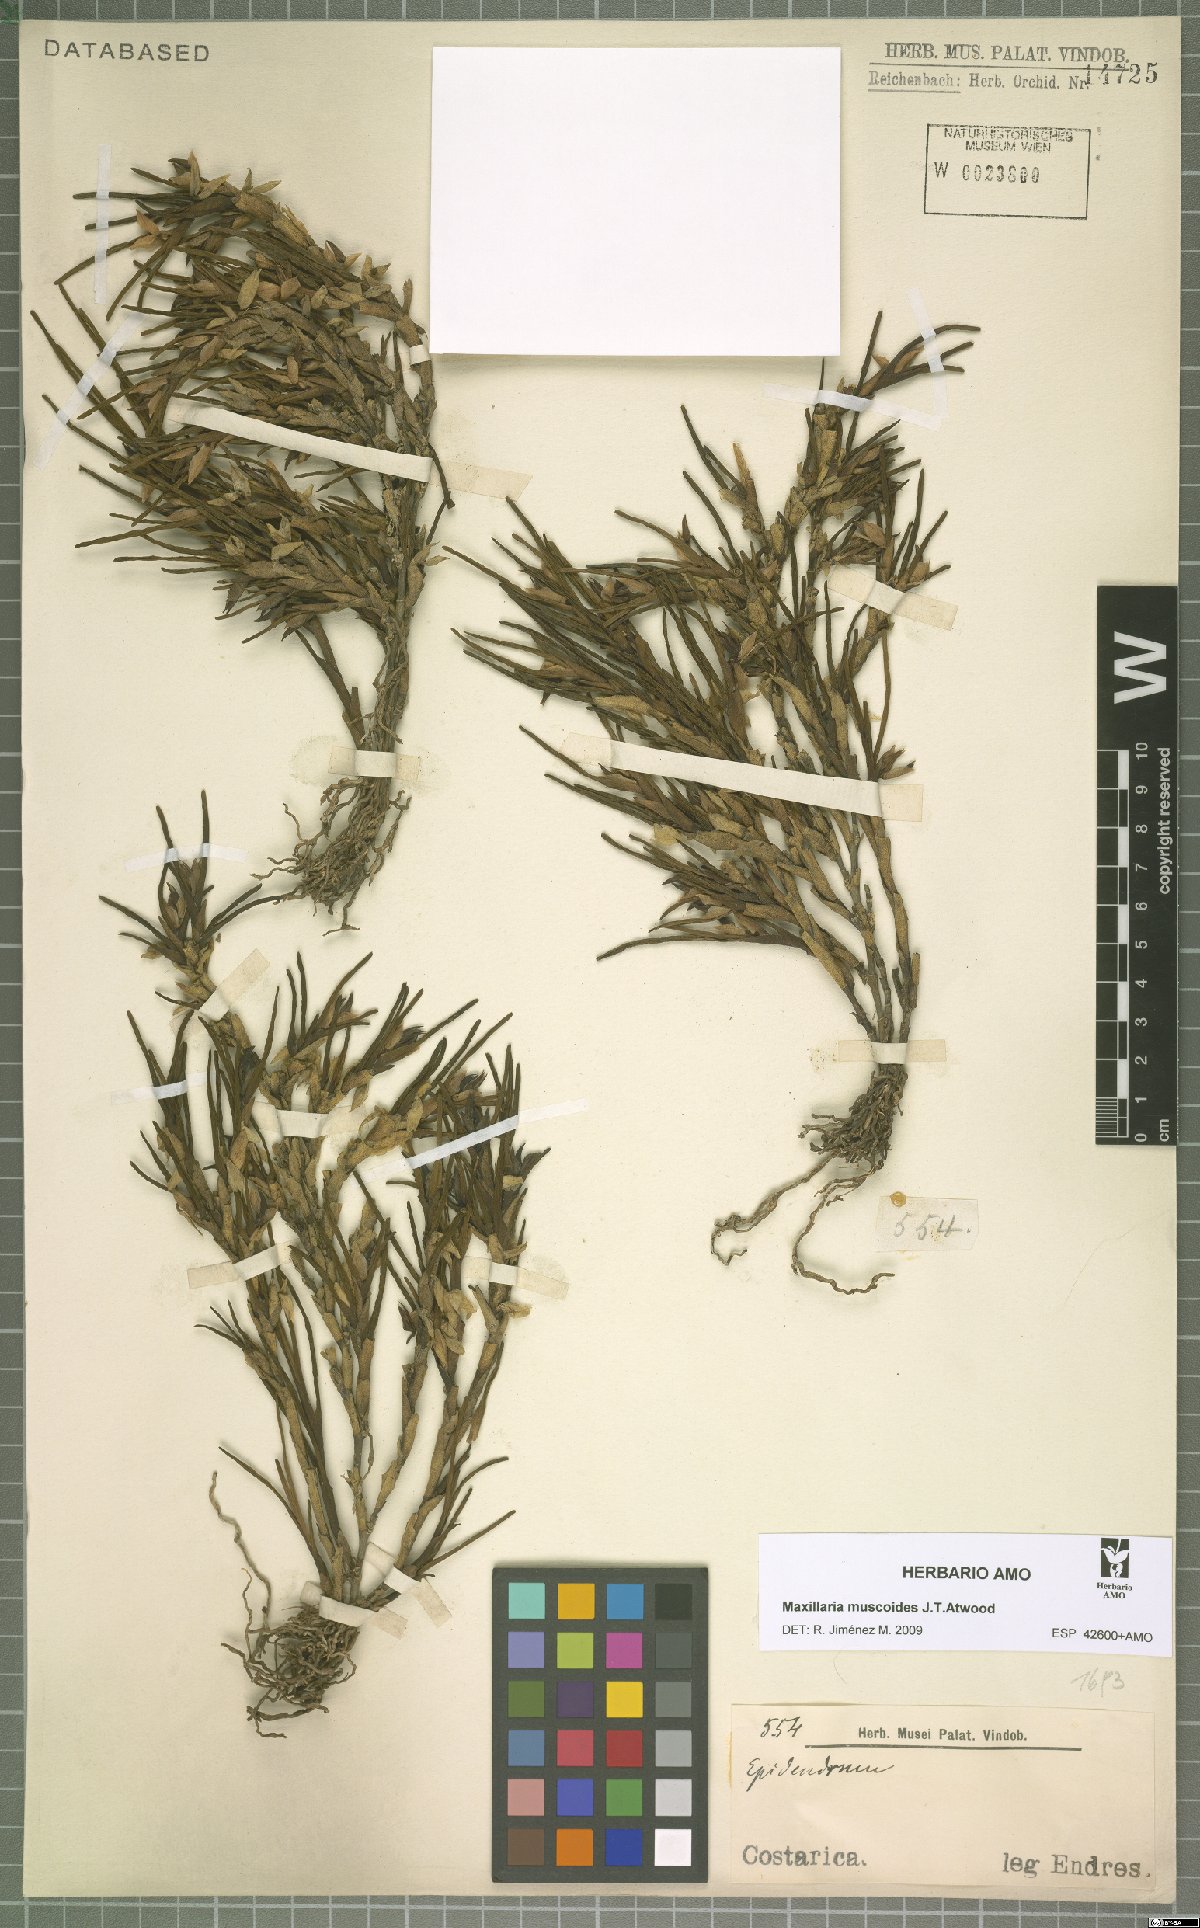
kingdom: Plantae
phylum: Tracheophyta
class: Liliopsida
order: Asparagales
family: Orchidaceae
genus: Maxillaria
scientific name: Maxillaria muscoides
